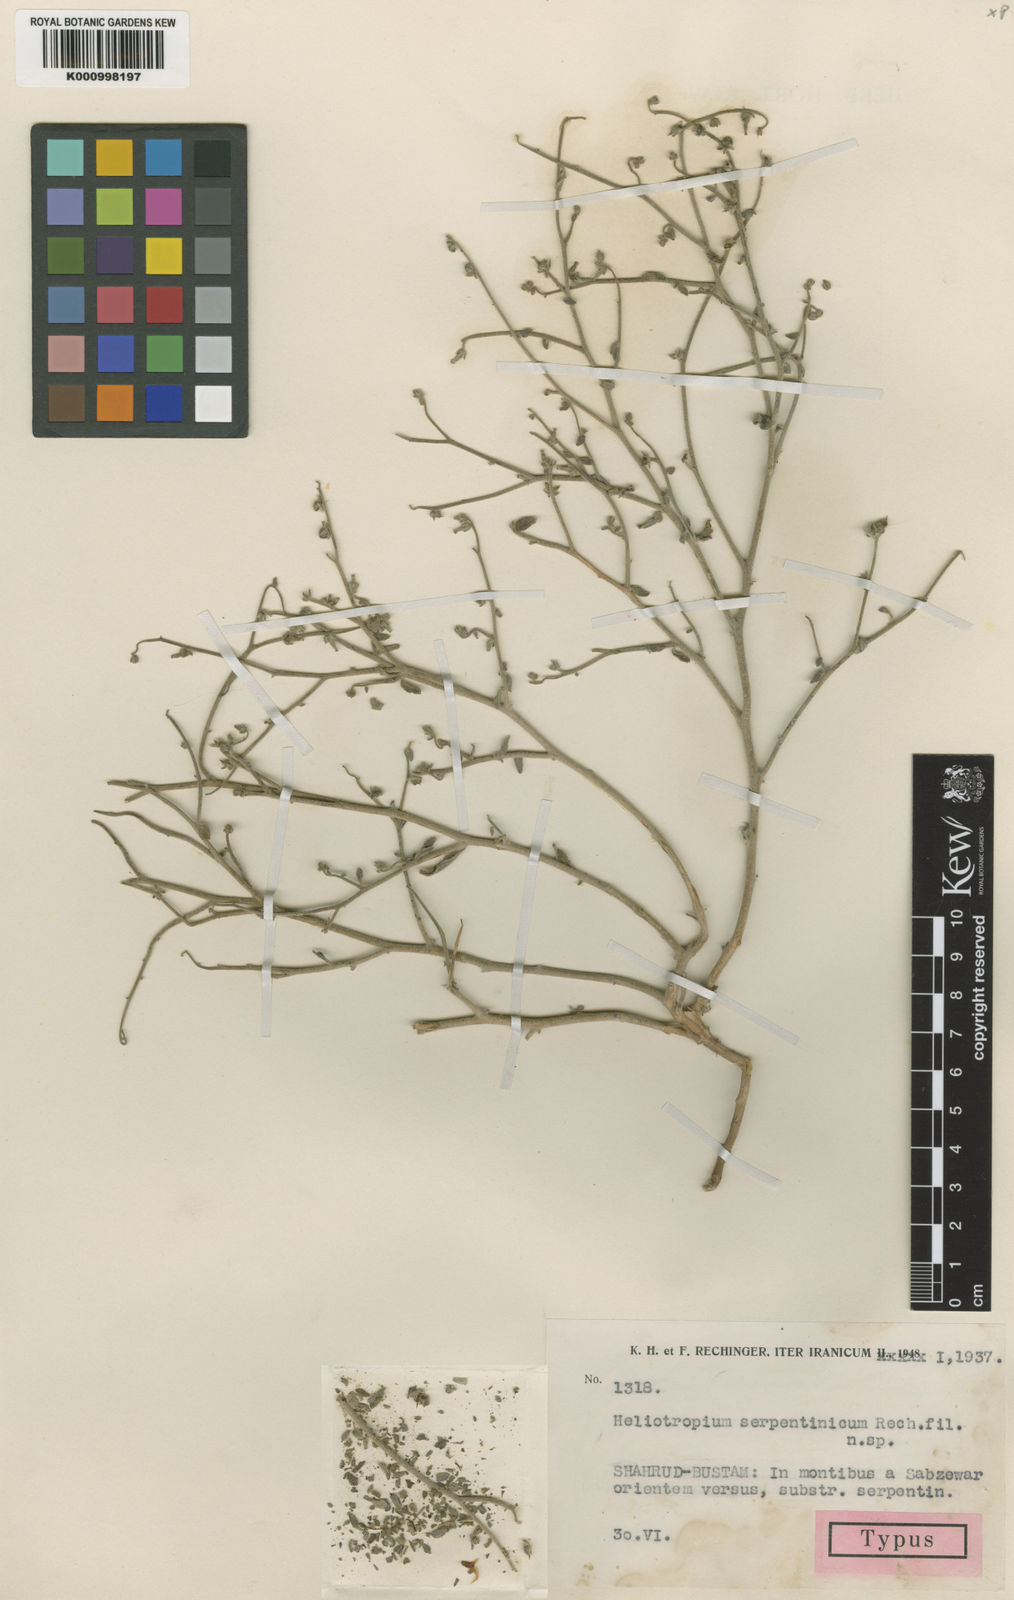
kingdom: Plantae
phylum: Tracheophyta
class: Magnoliopsida
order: Boraginales
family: Heliotropiaceae
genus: Heliotropium
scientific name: Heliotropium serpentinicum
